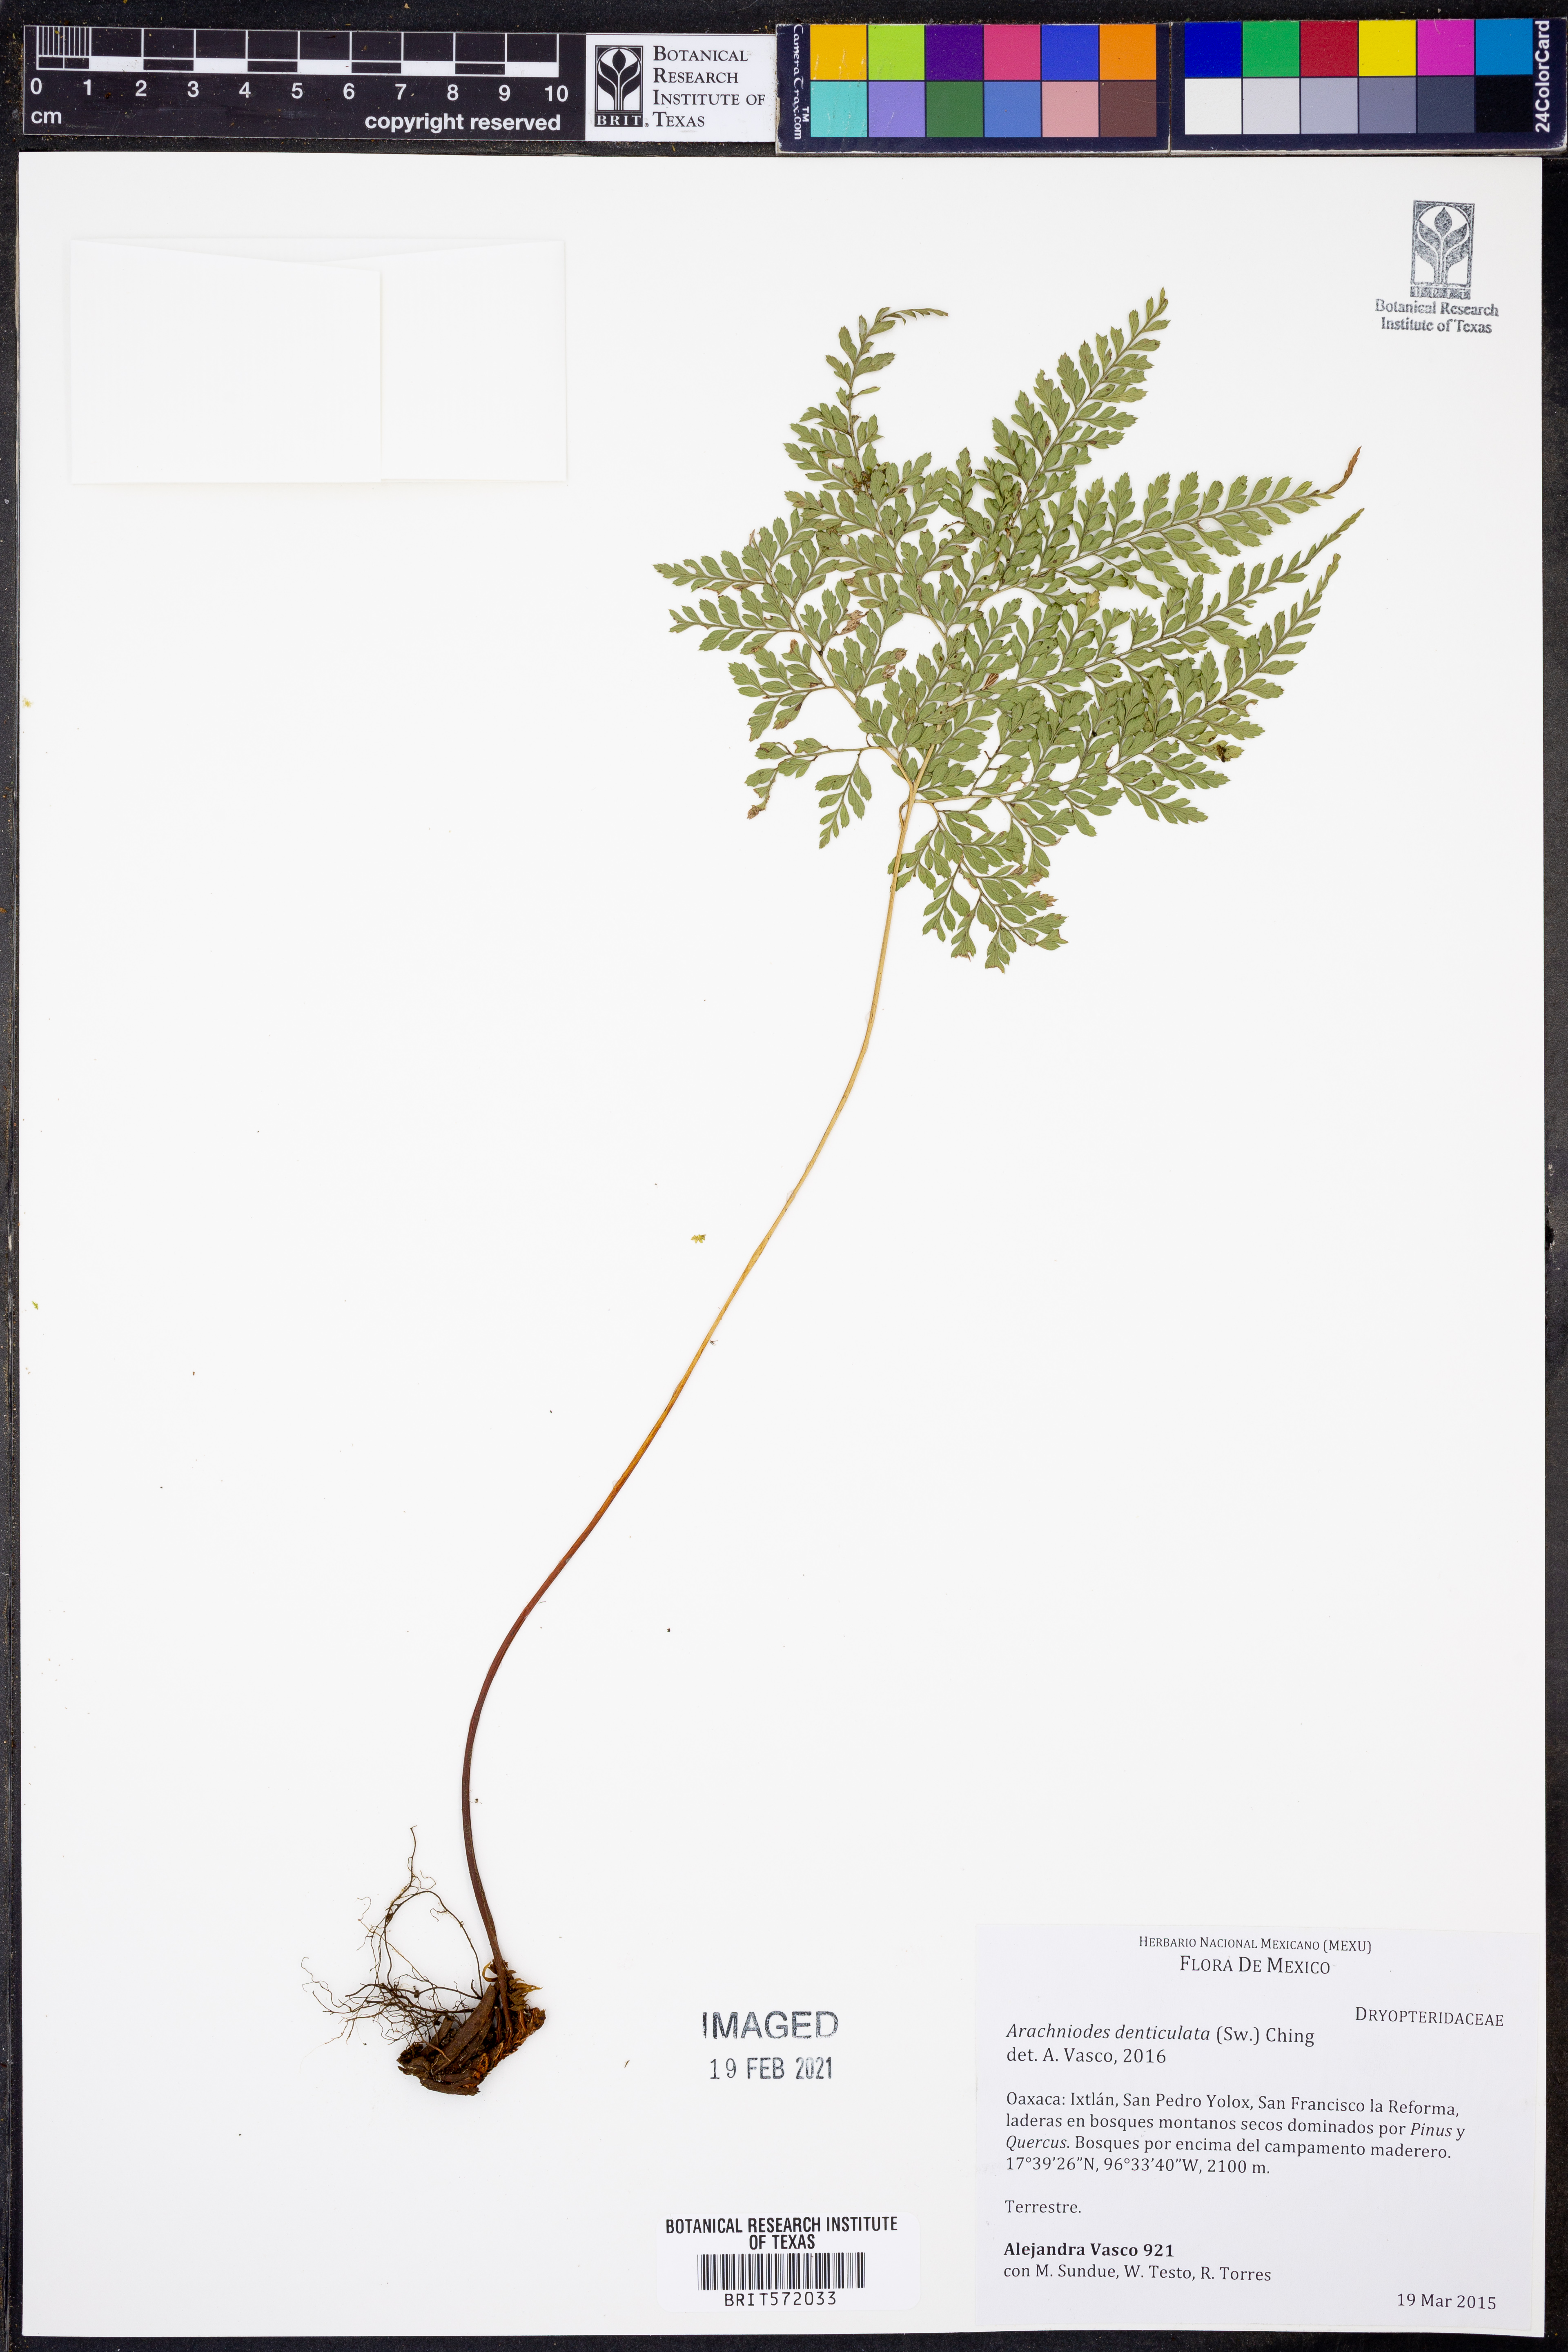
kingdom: Plantae
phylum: Tracheophyta
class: Polypodiopsida
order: Polypodiales
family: Dryopteridaceae
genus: Arachniodes
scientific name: Arachniodes denticulata
